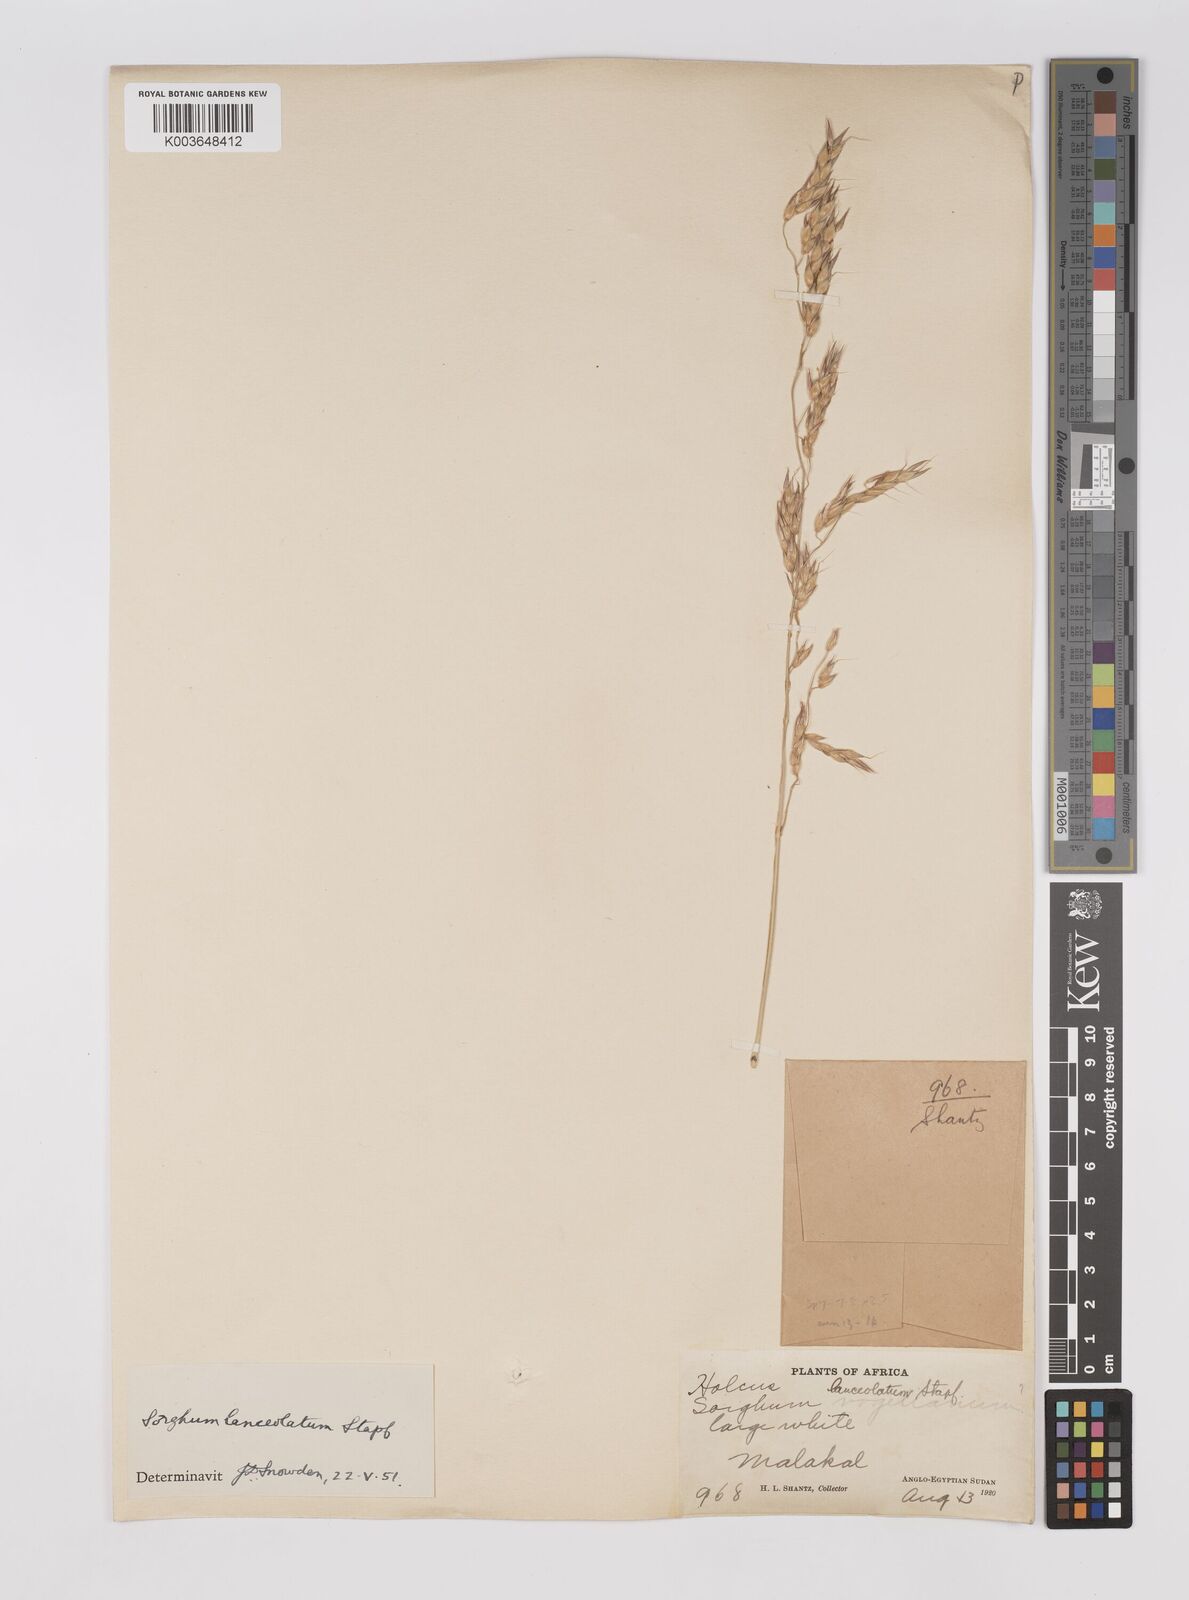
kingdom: Plantae
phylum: Tracheophyta
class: Liliopsida
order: Poales
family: Poaceae
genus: Sorghum
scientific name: Sorghum arundinaceum
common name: Sorghum
